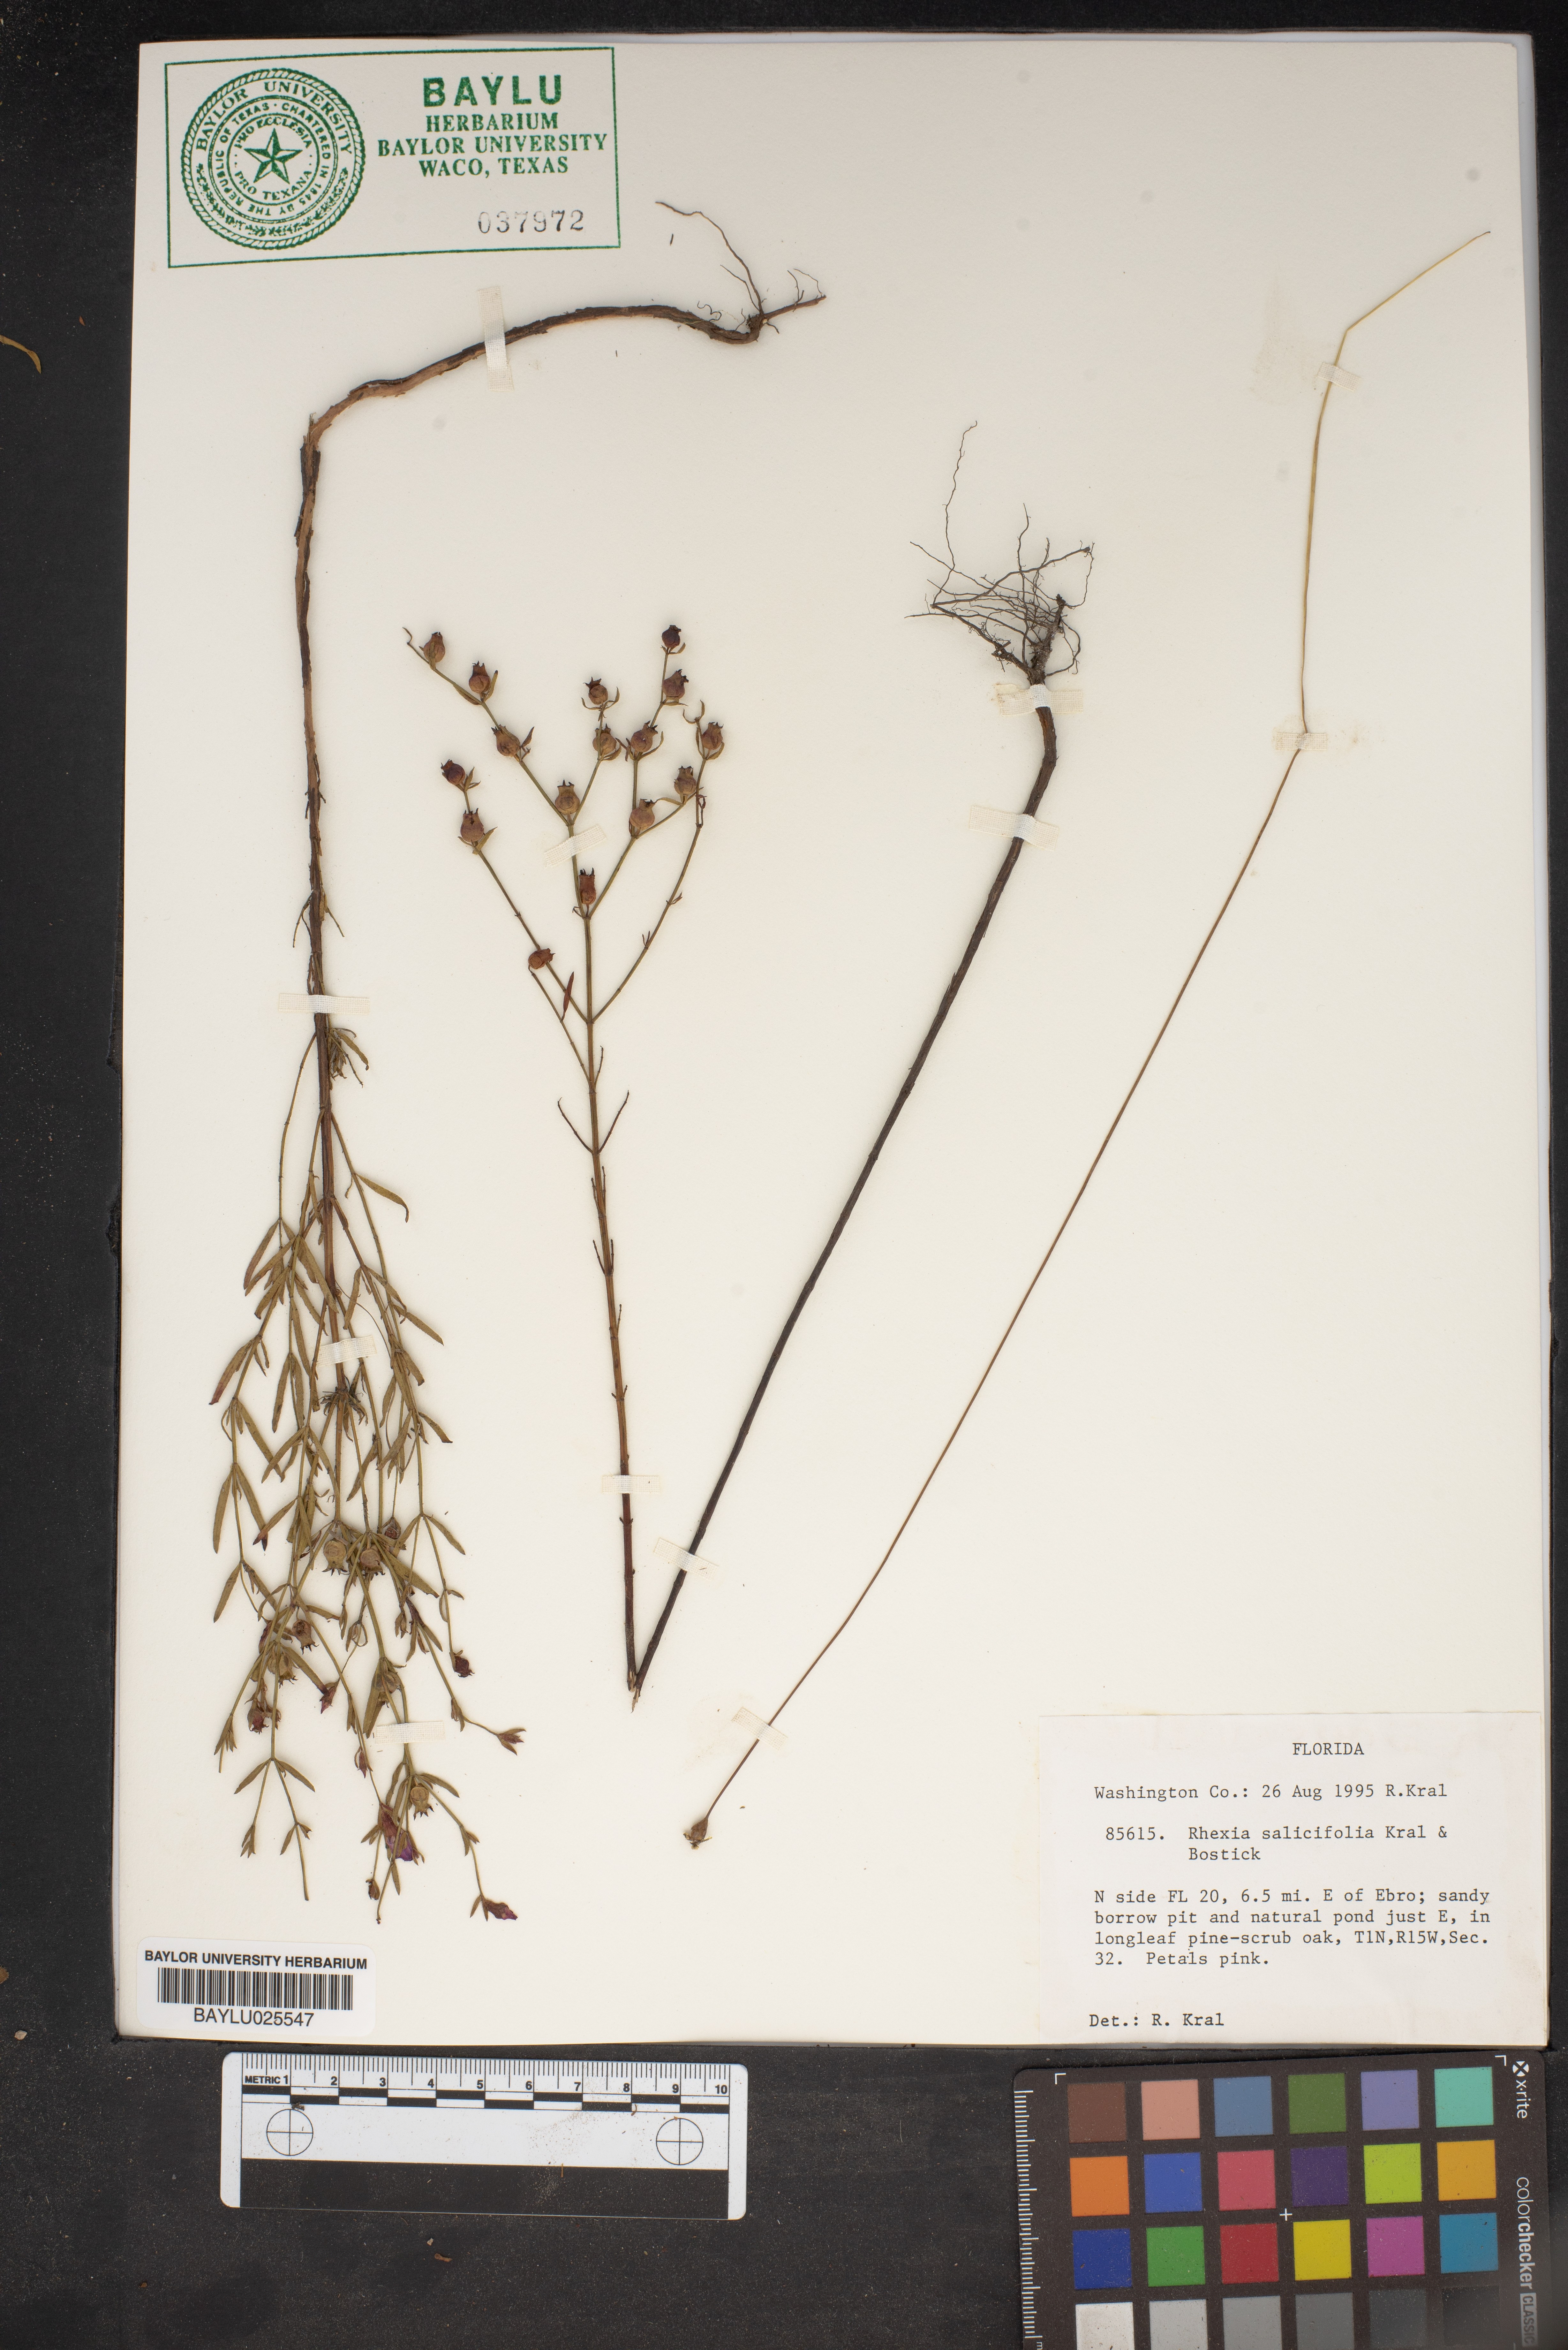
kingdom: Plantae
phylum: Tracheophyta
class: Magnoliopsida
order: Myrtales
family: Melastomataceae
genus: Rhexia
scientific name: Rhexia salicifolia
